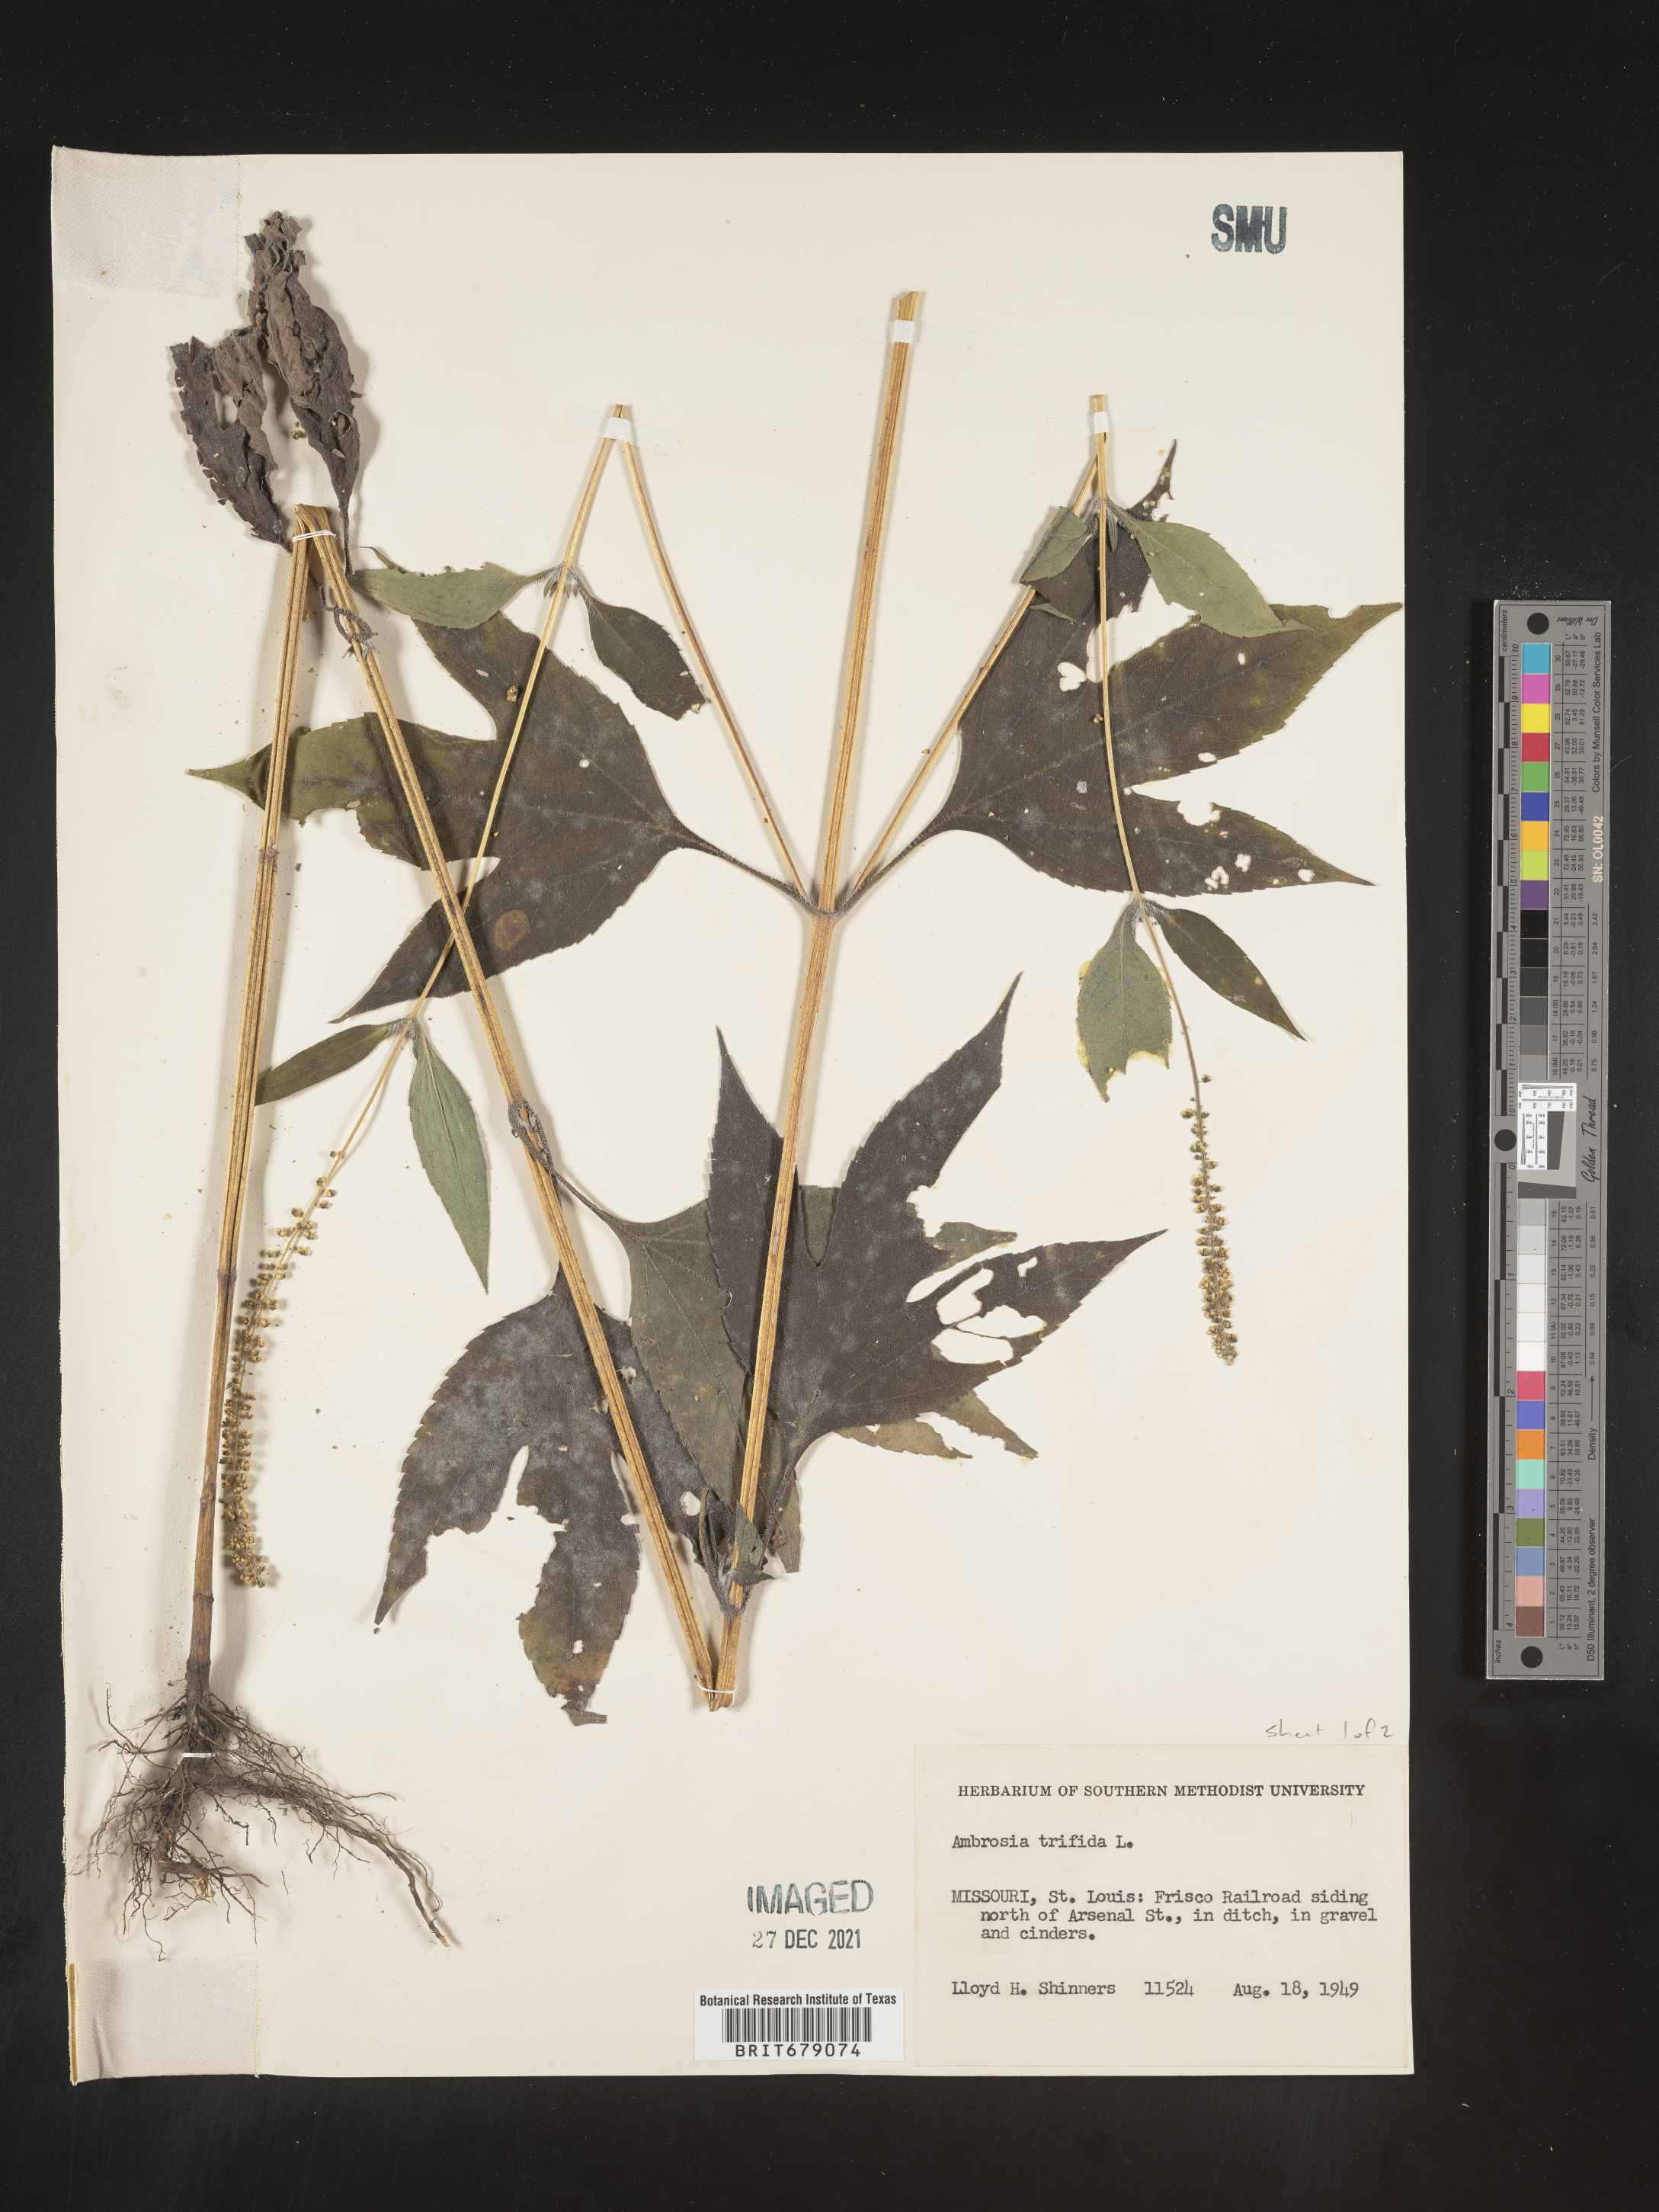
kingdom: Plantae
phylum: Tracheophyta
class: Magnoliopsida
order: Asterales
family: Asteraceae
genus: Ambrosia
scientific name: Ambrosia trifida
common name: Giant ragweed
